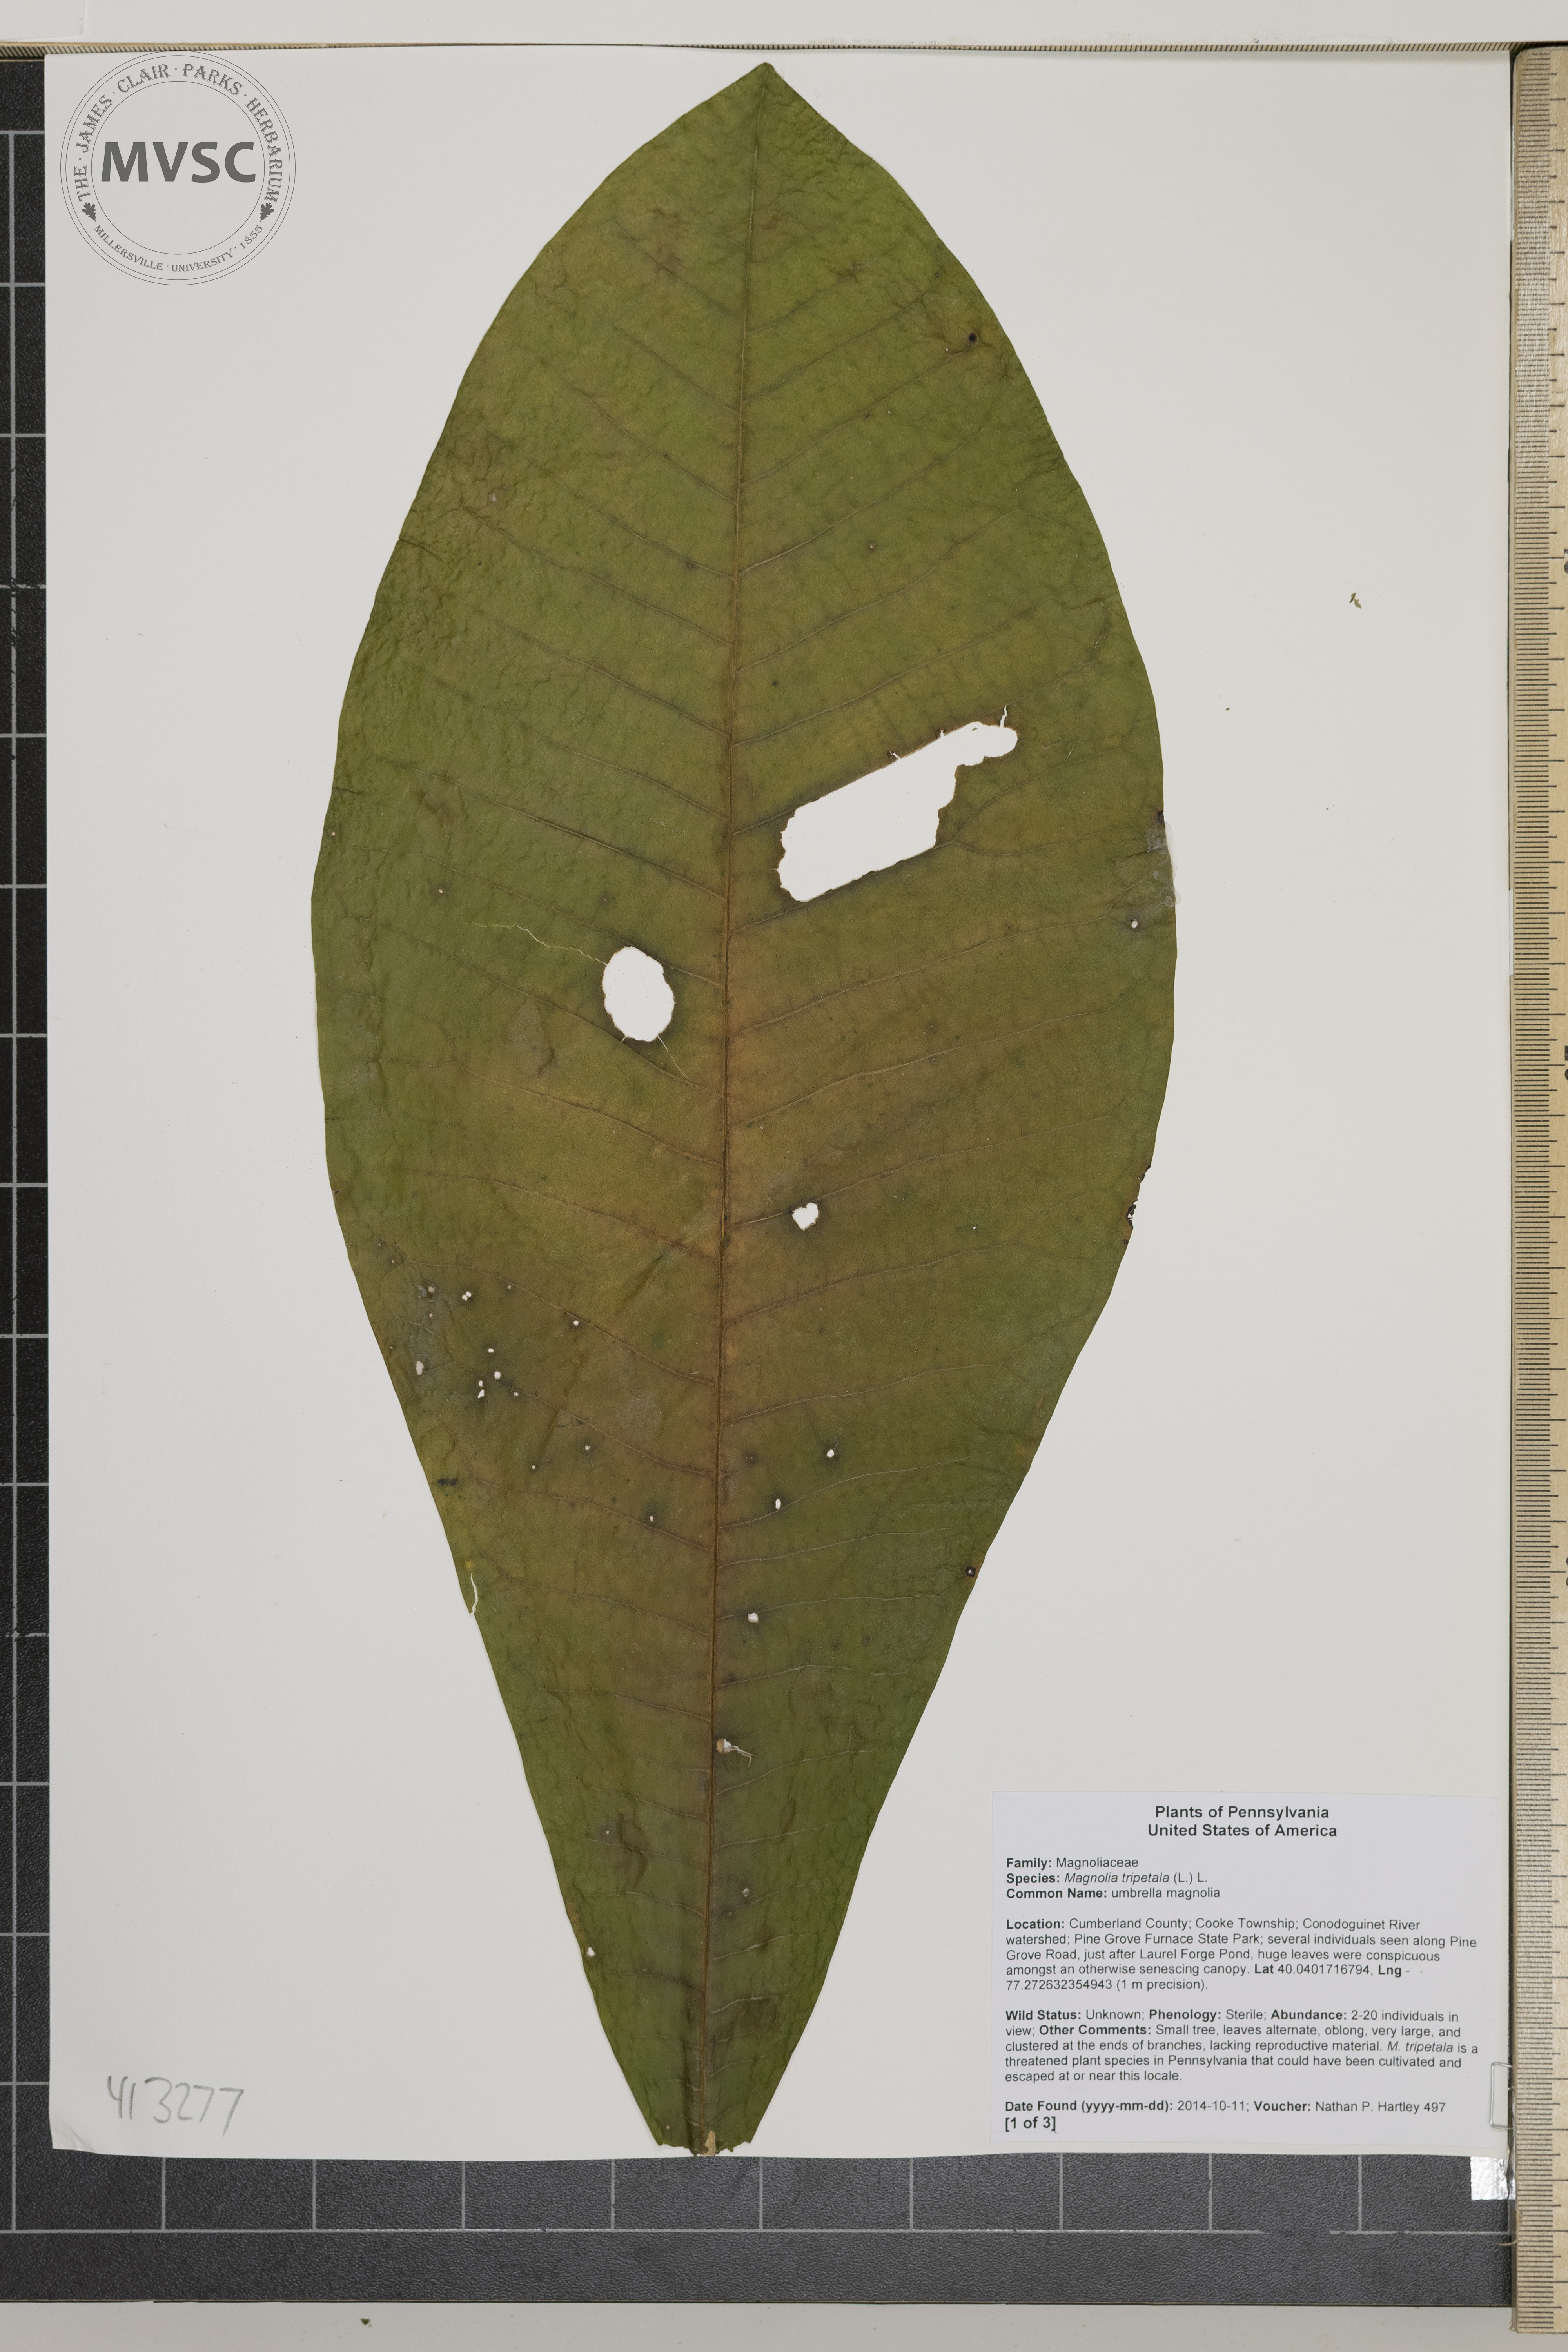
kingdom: Plantae
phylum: Tracheophyta
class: Magnoliopsida
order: Magnoliales
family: Magnoliaceae
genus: Magnolia
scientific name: Magnolia tripetala
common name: umbrella magnolia
